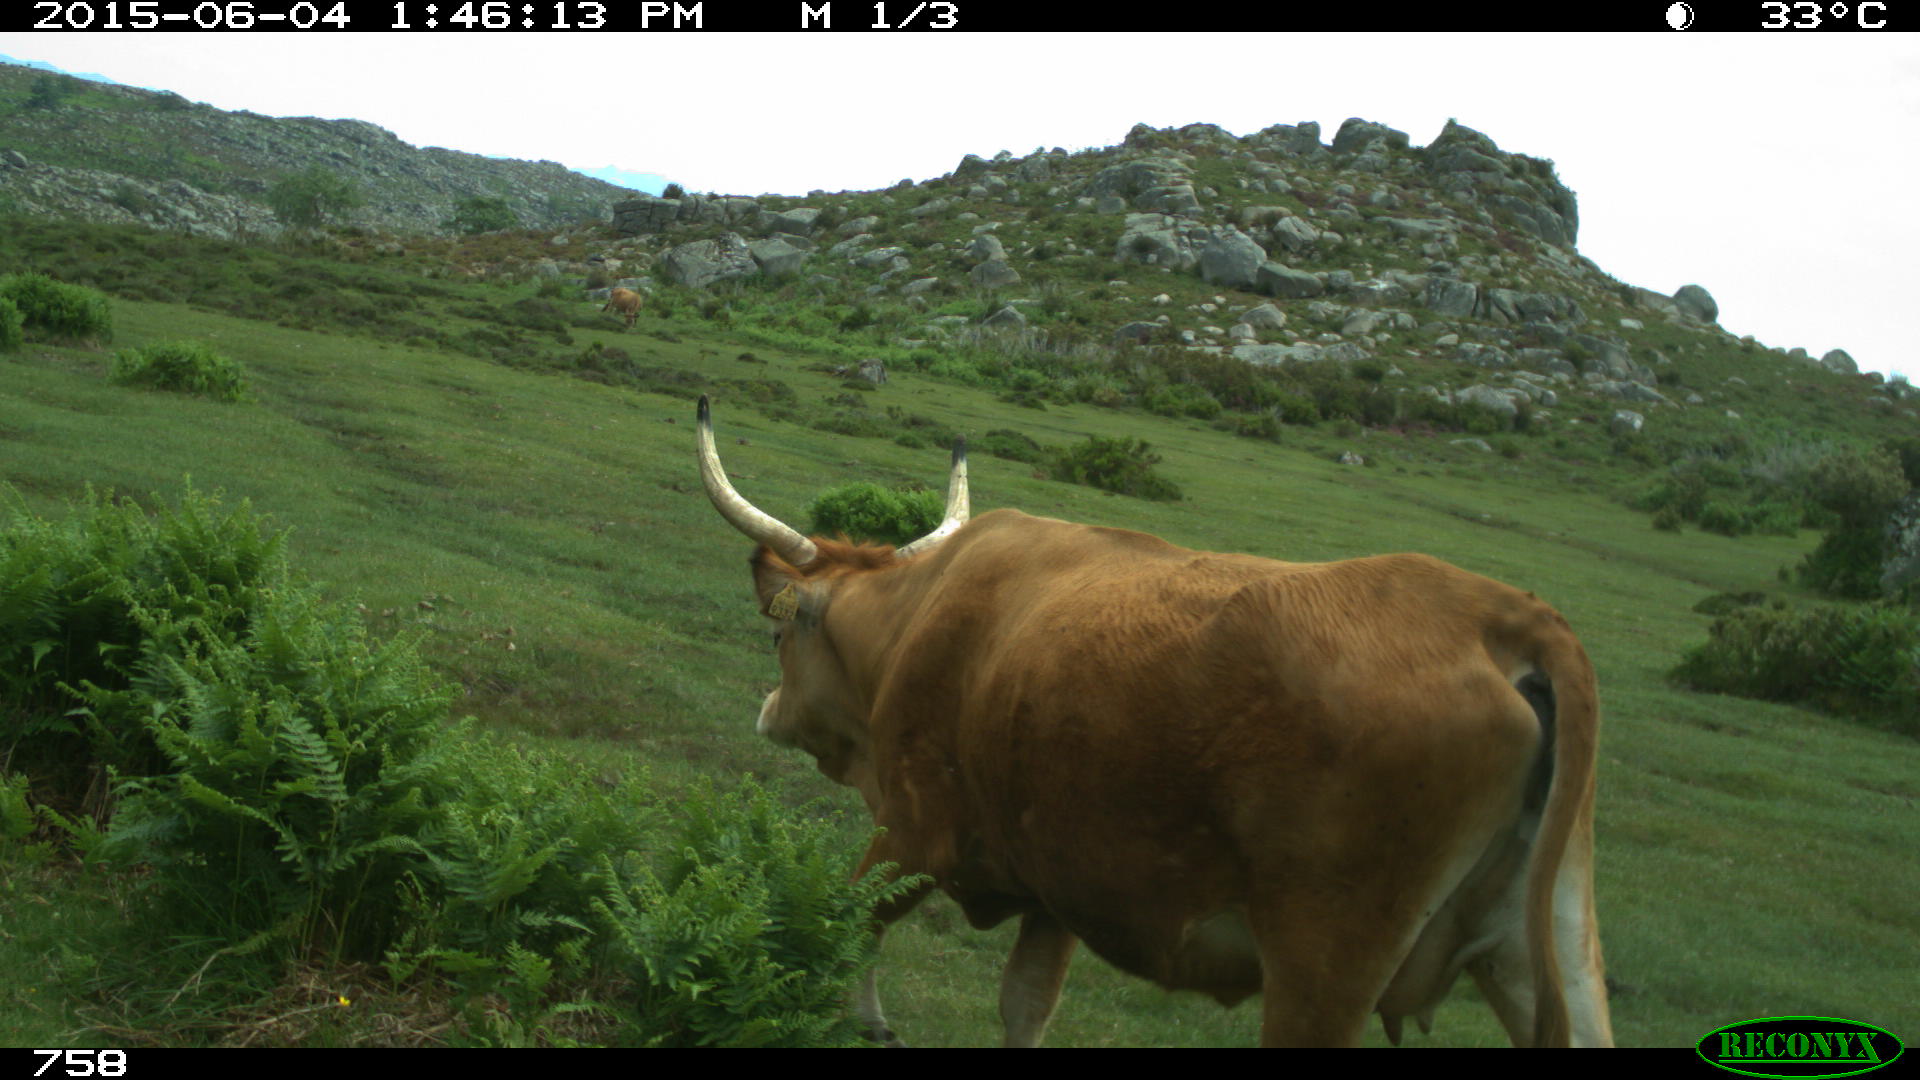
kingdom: Animalia
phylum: Chordata
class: Mammalia
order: Artiodactyla
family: Bovidae
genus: Bos
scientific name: Bos taurus
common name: Domesticated cattle
